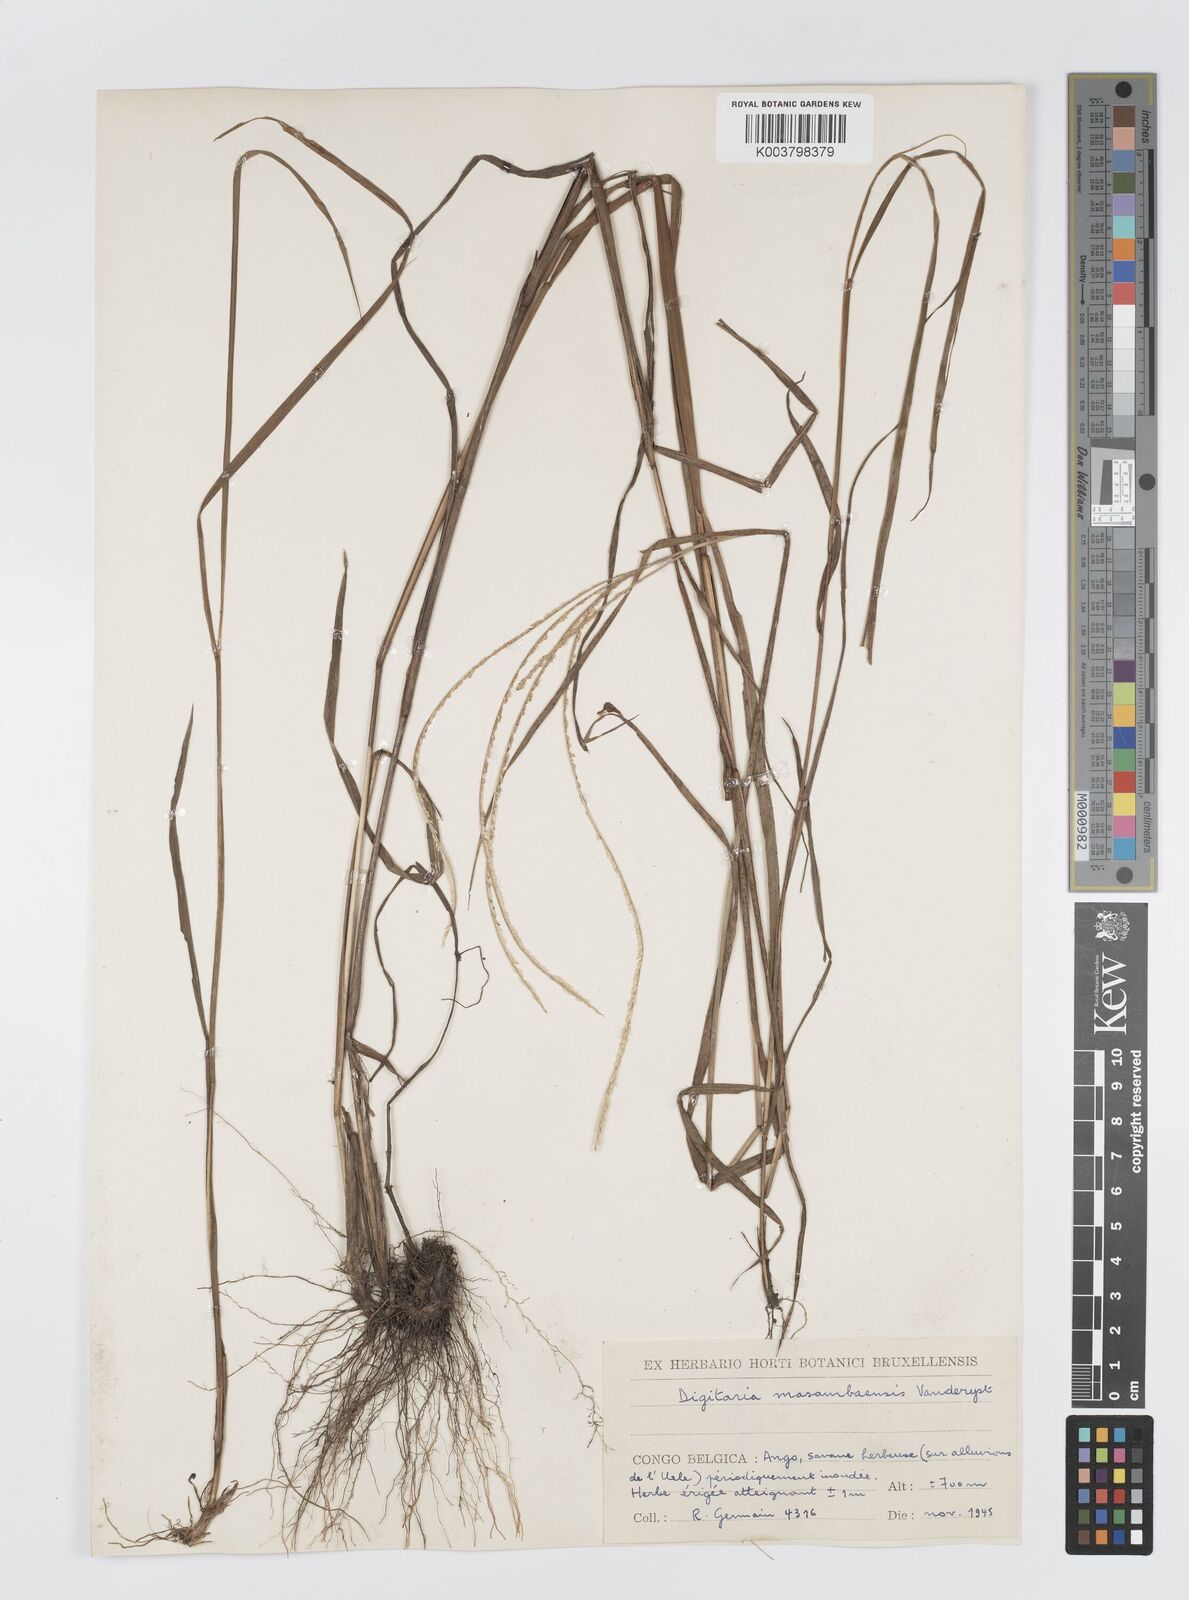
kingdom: Plantae
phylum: Tracheophyta
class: Liliopsida
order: Poales
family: Poaceae
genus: Digitaria
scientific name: Digitaria atrofusca
